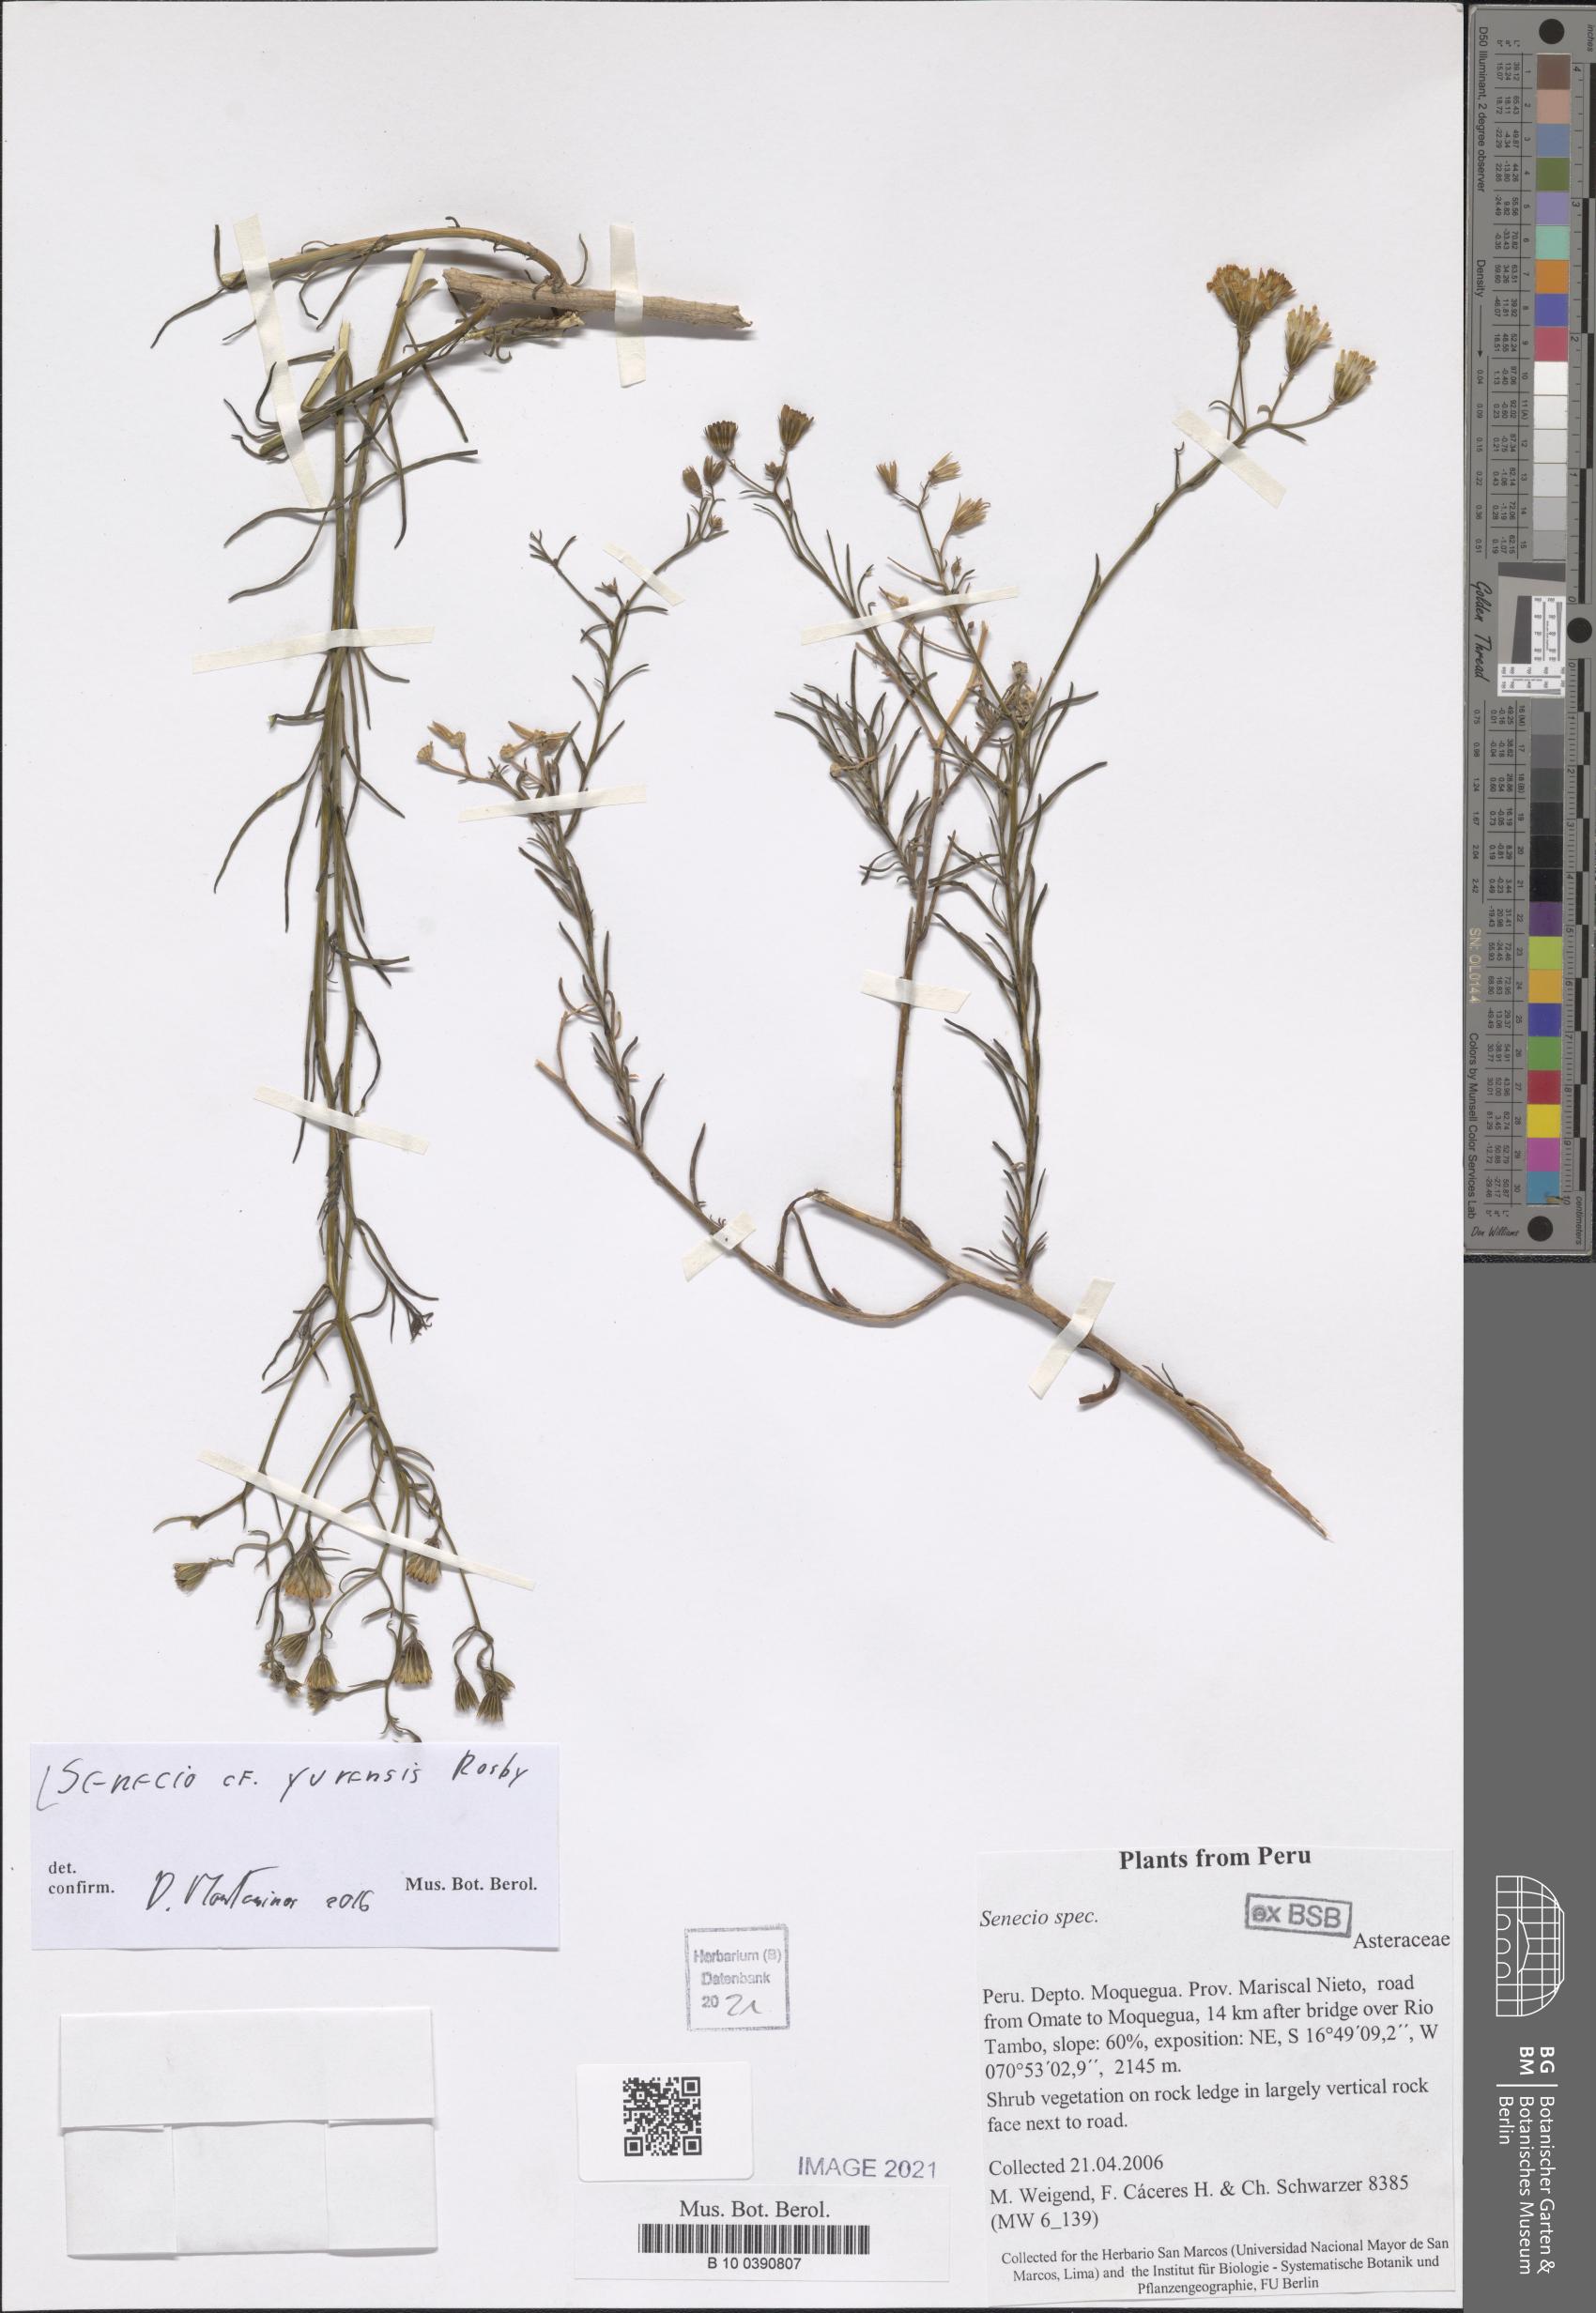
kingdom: Plantae
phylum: Tracheophyta
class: Magnoliopsida
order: Asterales
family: Asteraceae
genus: Senecio
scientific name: Senecio yurensis
